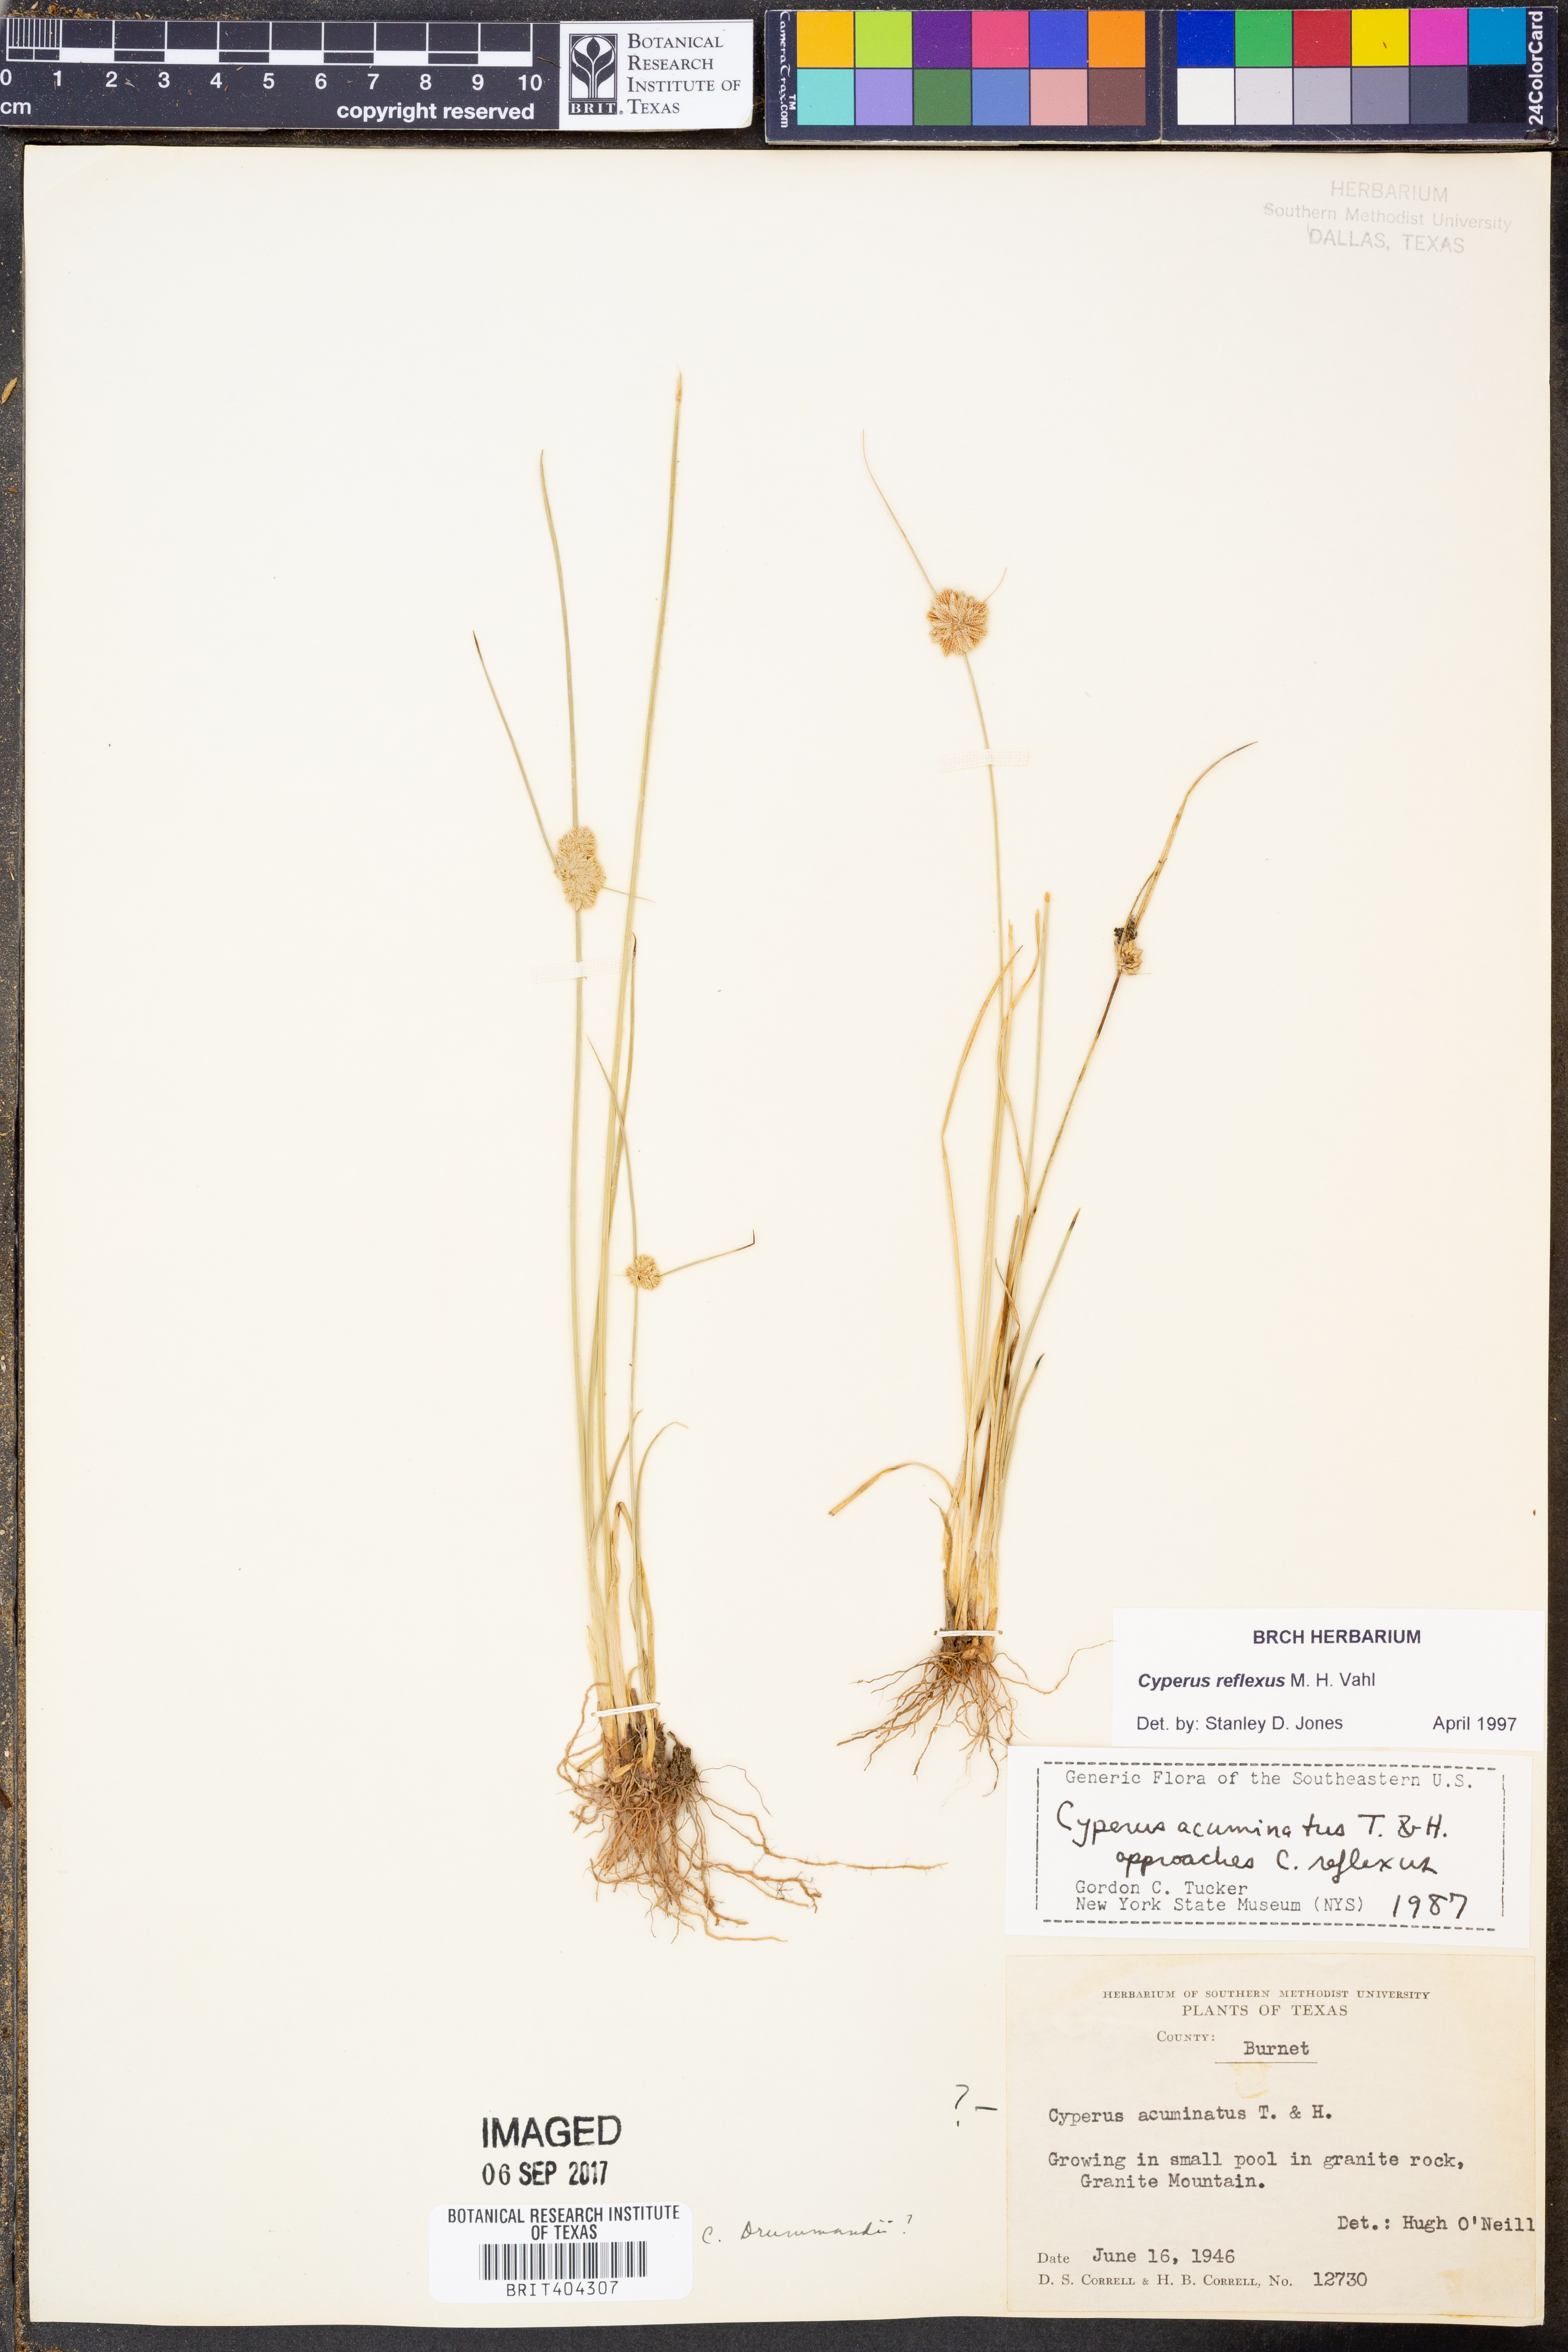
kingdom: Plantae
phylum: Tracheophyta
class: Liliopsida
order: Poales
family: Cyperaceae
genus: Cyperus
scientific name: Cyperus reflexus
